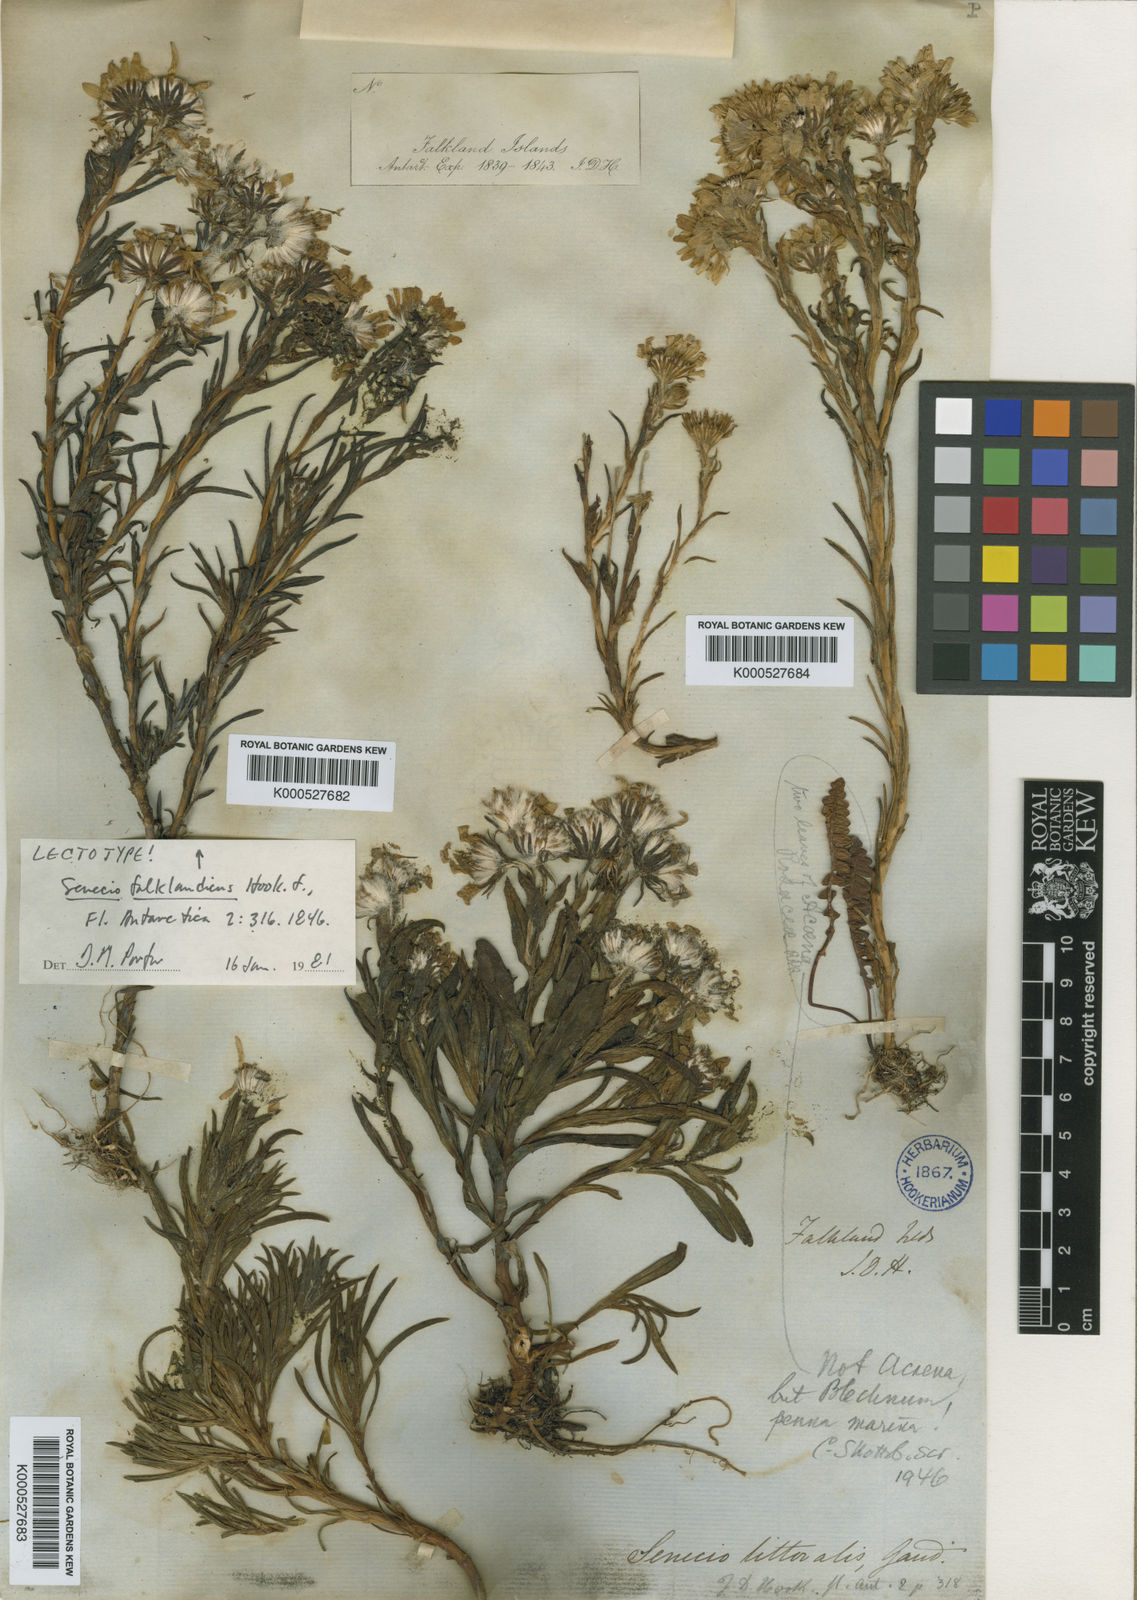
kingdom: Plantae
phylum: Tracheophyta
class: Magnoliopsida
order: Asterales
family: Asteraceae
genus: Senecio
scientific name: Senecio vaginatus
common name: Smooth falkland daisy
